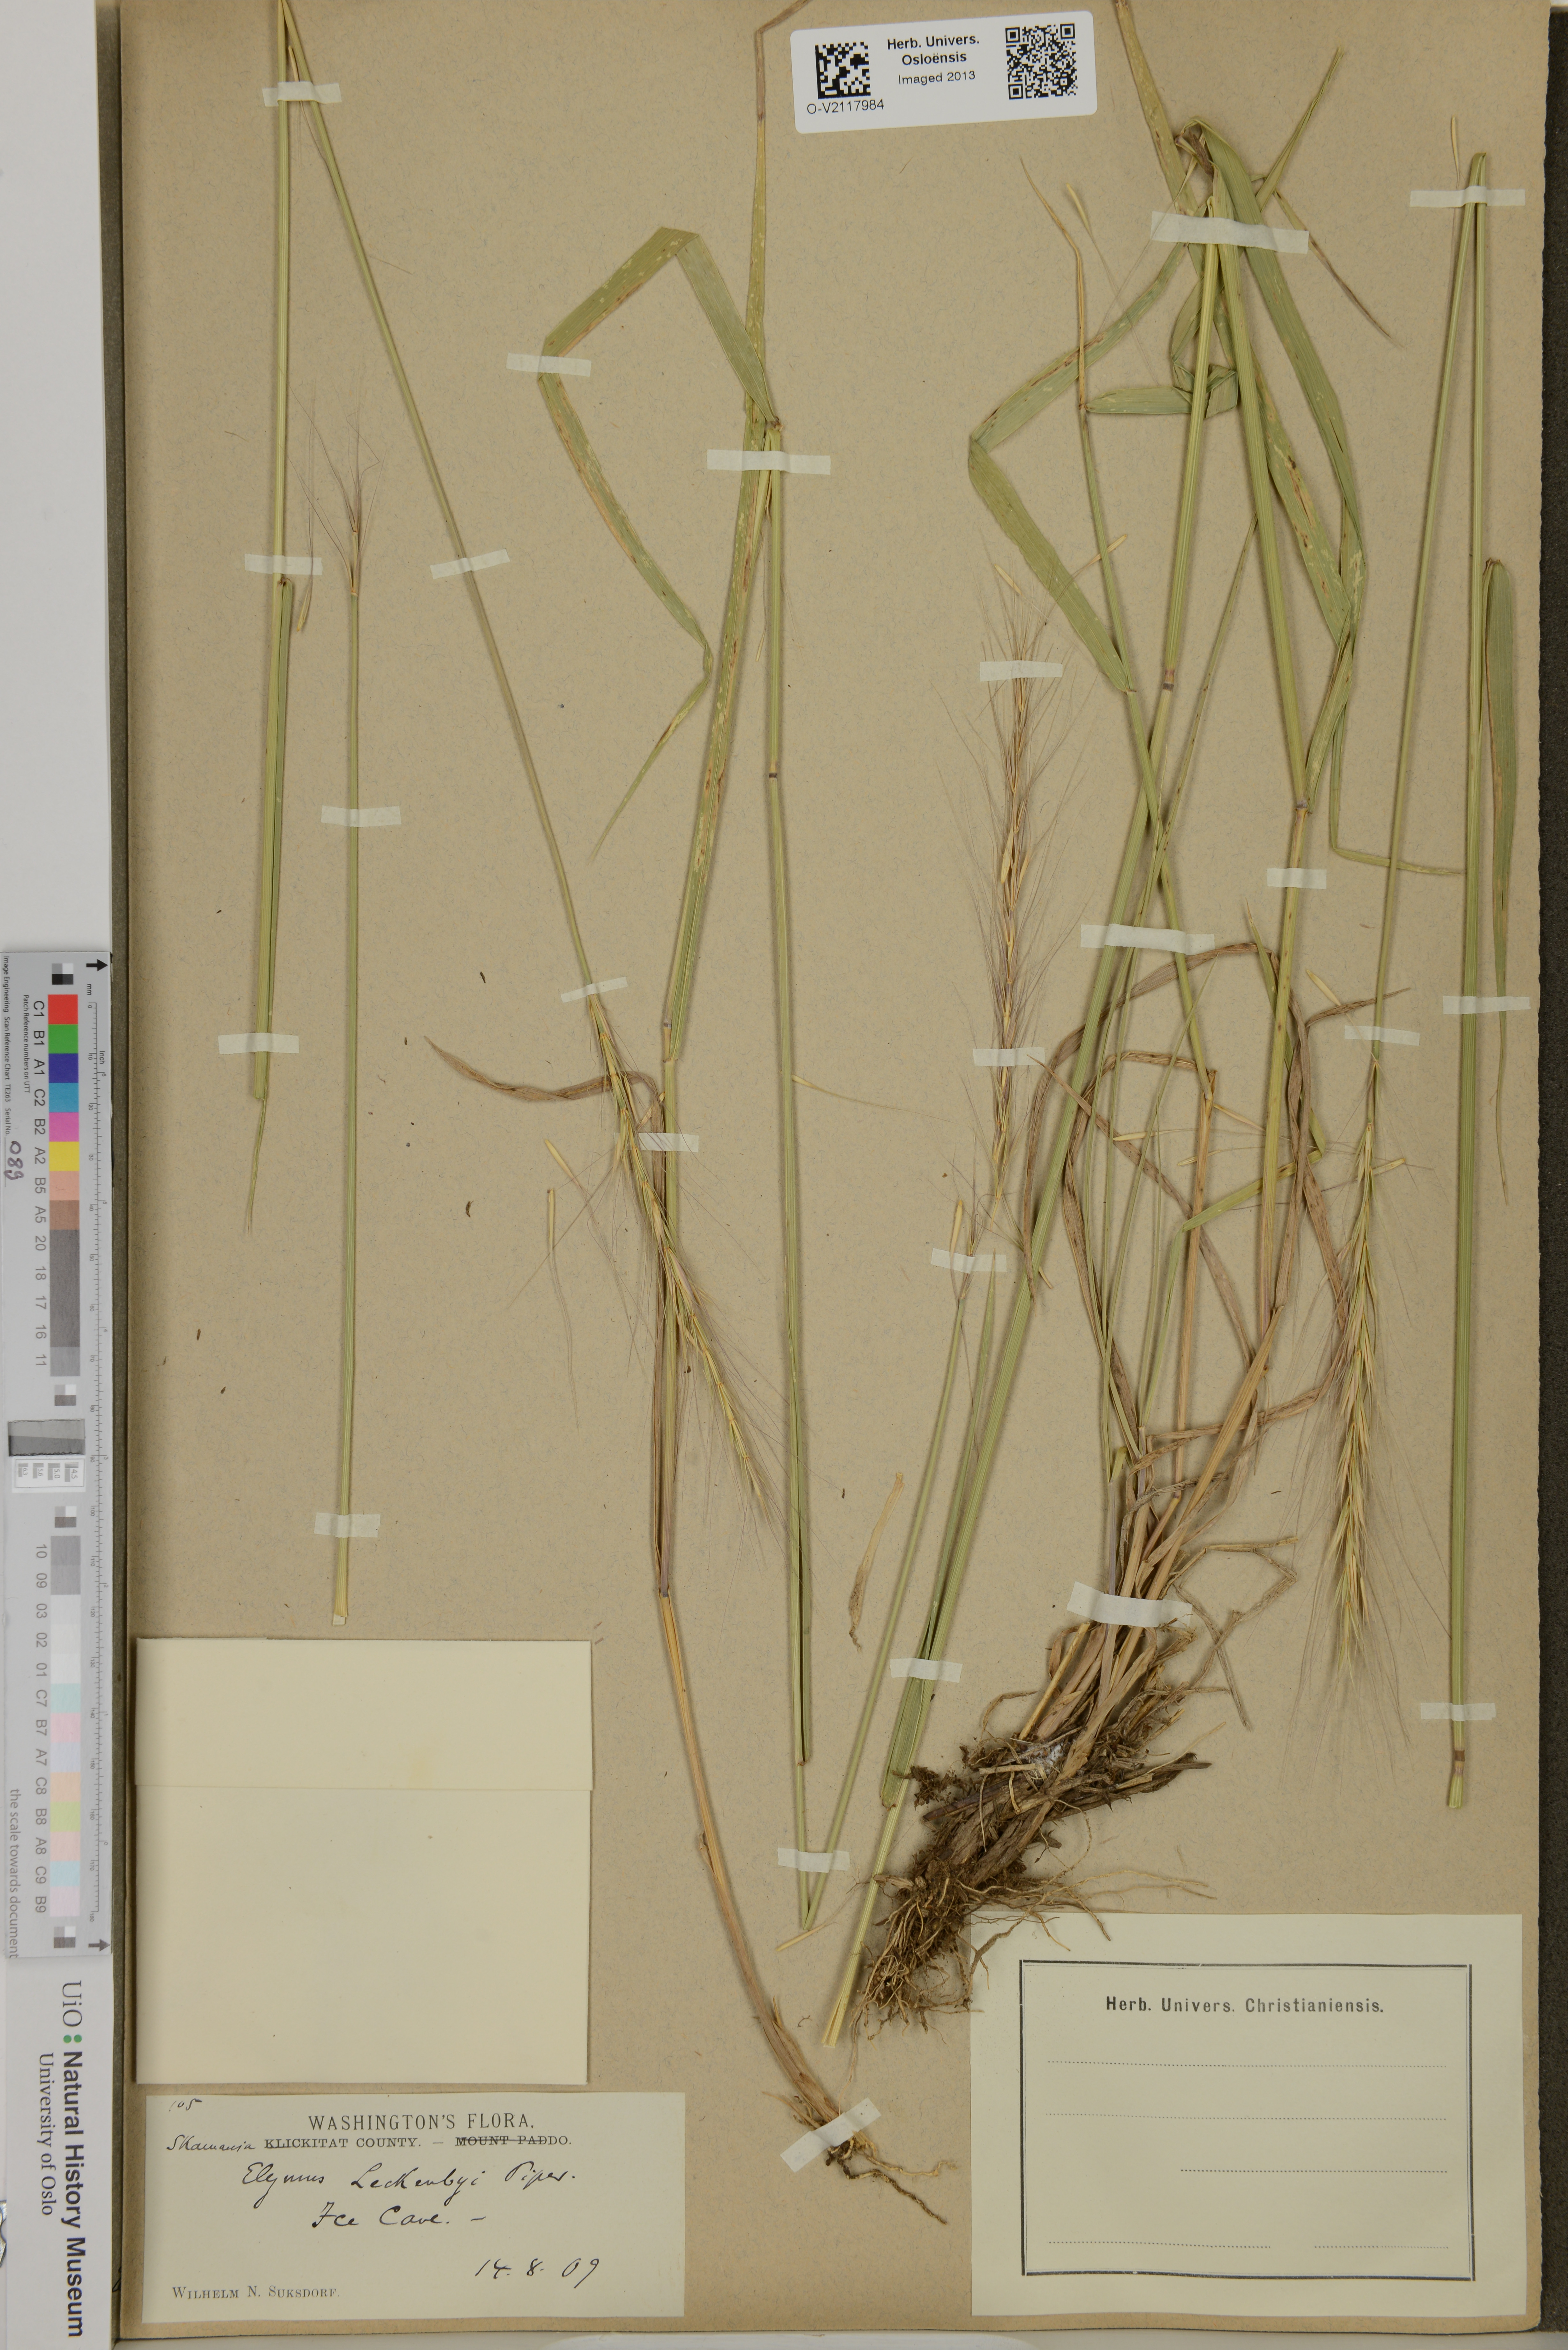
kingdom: Plantae
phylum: Tracheophyta
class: Liliopsida
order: Poales
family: Poaceae
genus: Elymus
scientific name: Elymus hansenii
